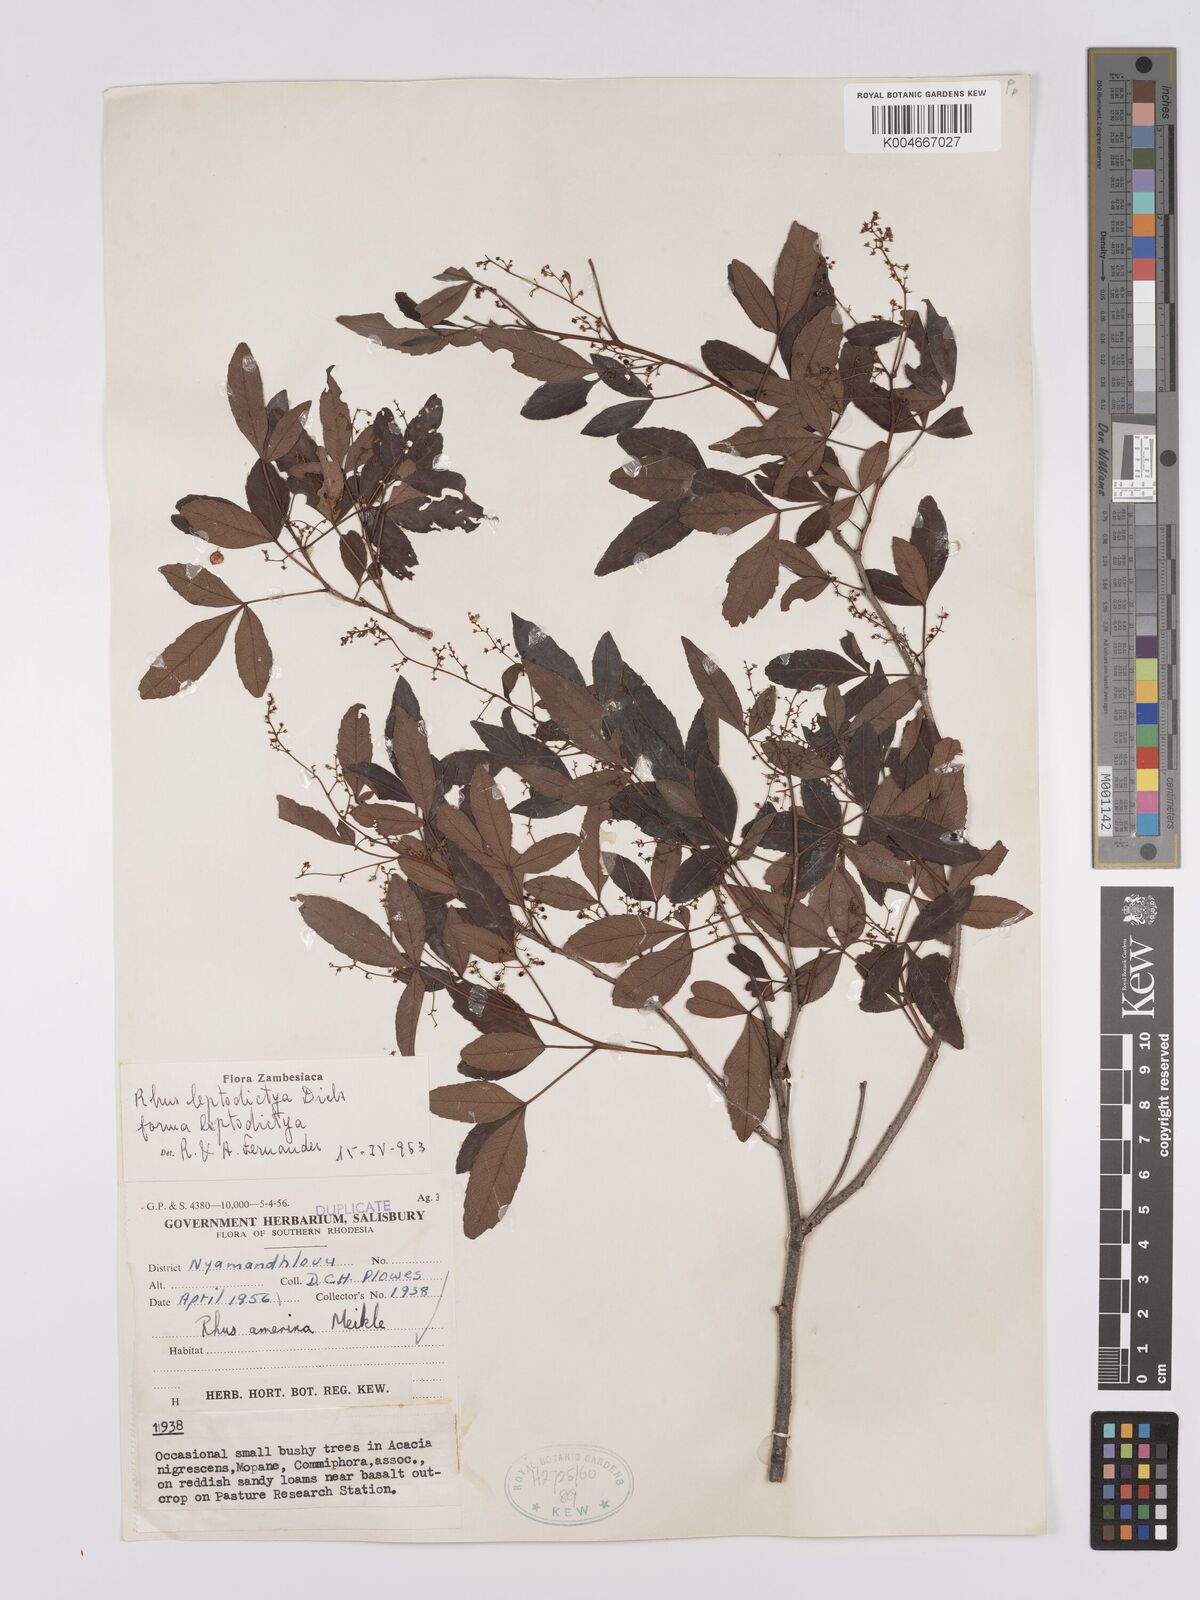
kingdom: Plantae
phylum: Tracheophyta
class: Magnoliopsida
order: Sapindales
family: Anacardiaceae
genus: Searsia
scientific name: Searsia leptodictya
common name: Mountain karee
